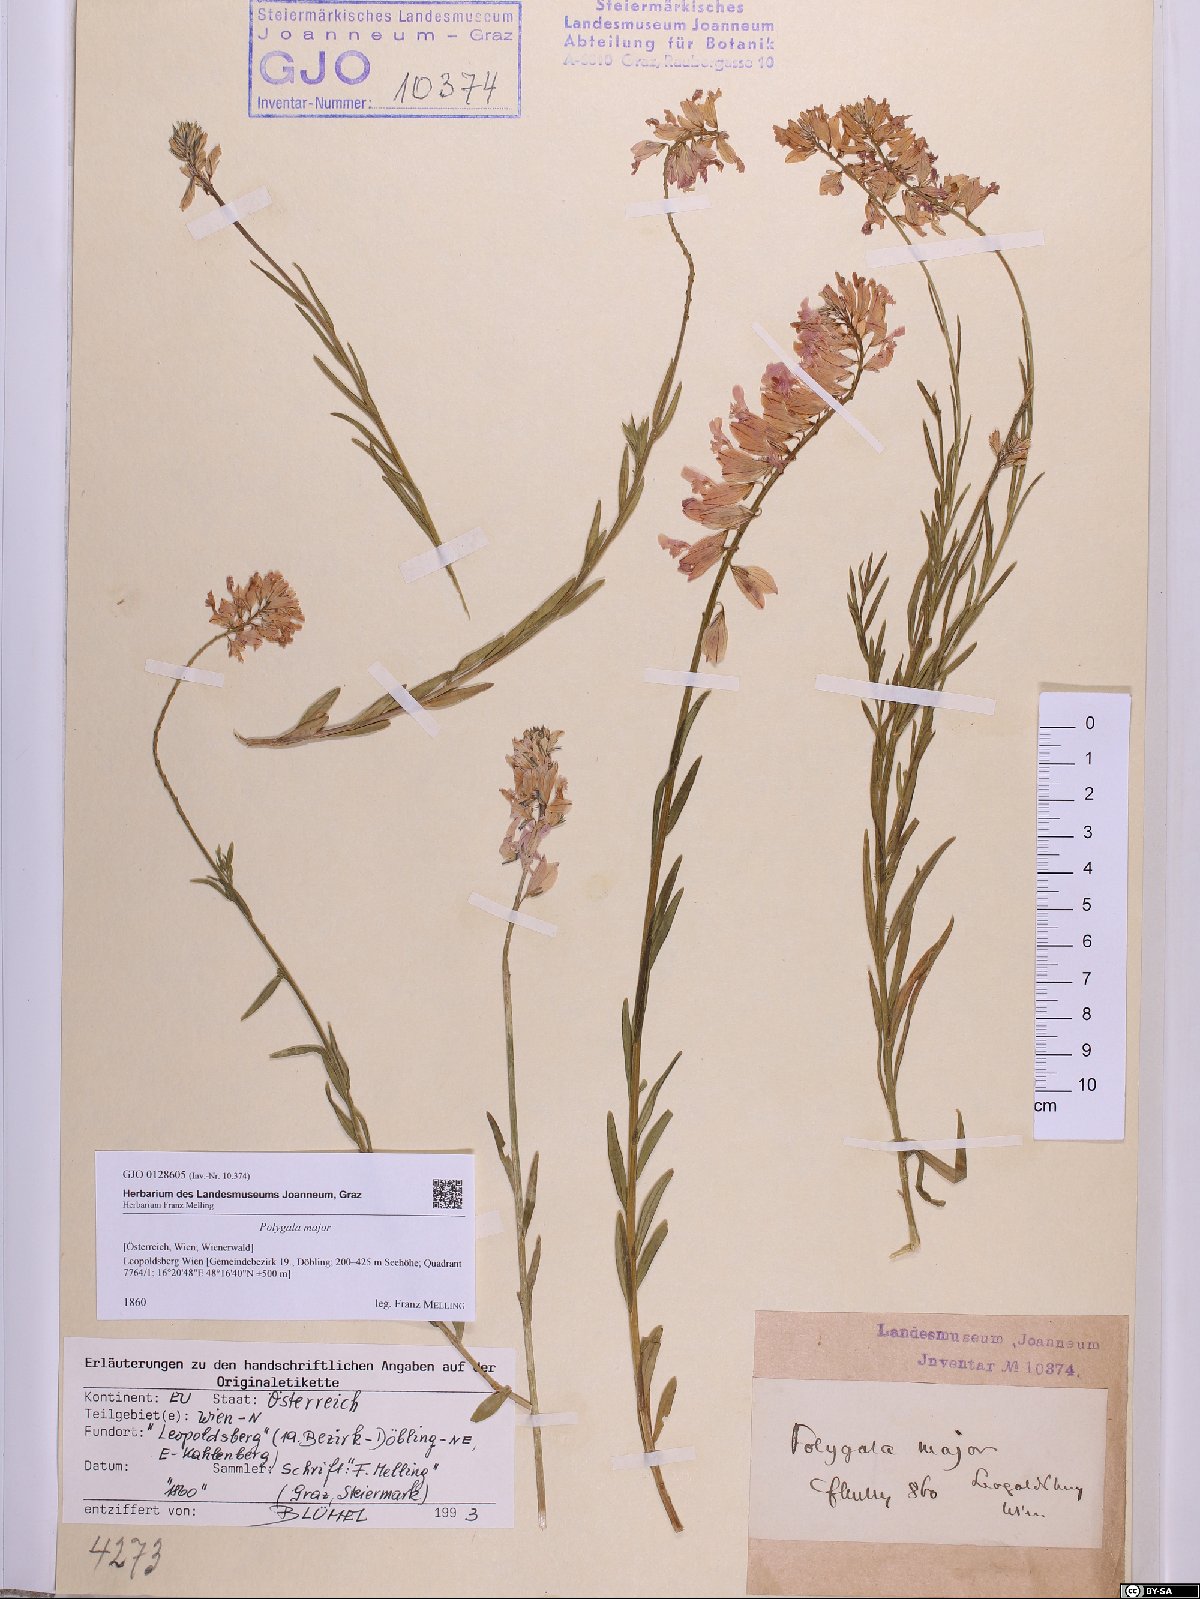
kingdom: Plantae
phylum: Tracheophyta
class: Magnoliopsida
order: Fabales
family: Polygalaceae
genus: Polygala
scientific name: Polygala major
